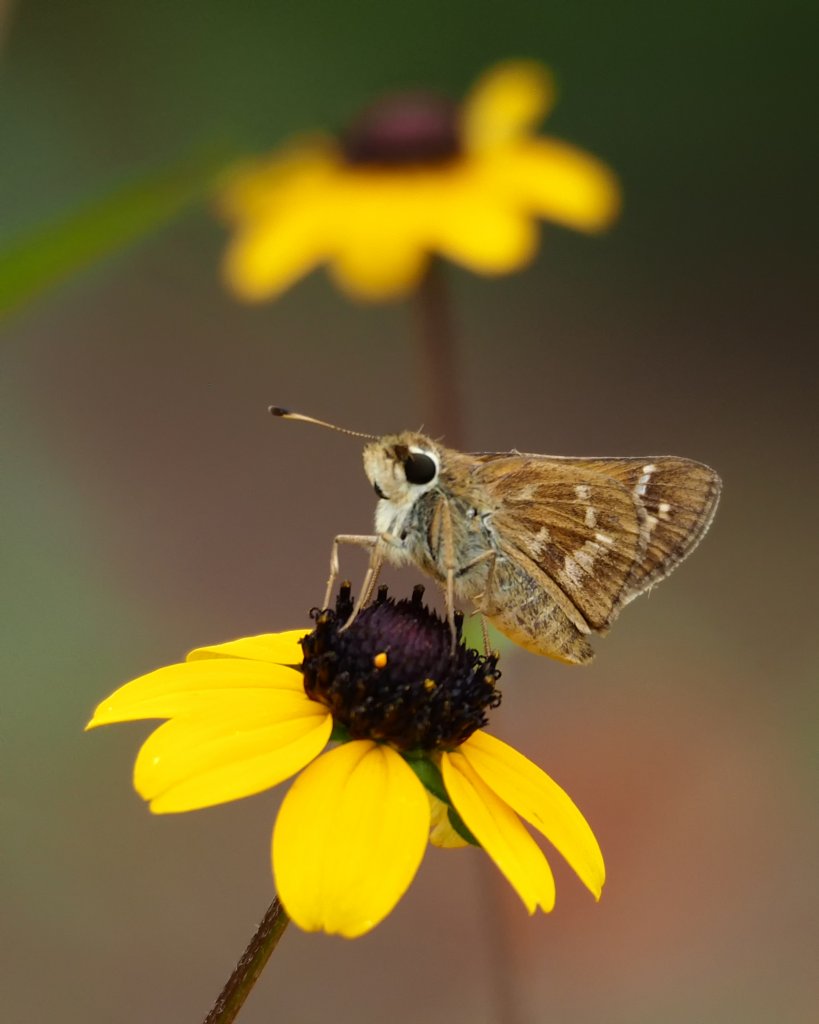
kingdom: Animalia
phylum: Arthropoda
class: Insecta
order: Lepidoptera
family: Hesperiidae
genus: Atalopedes
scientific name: Atalopedes campestris
